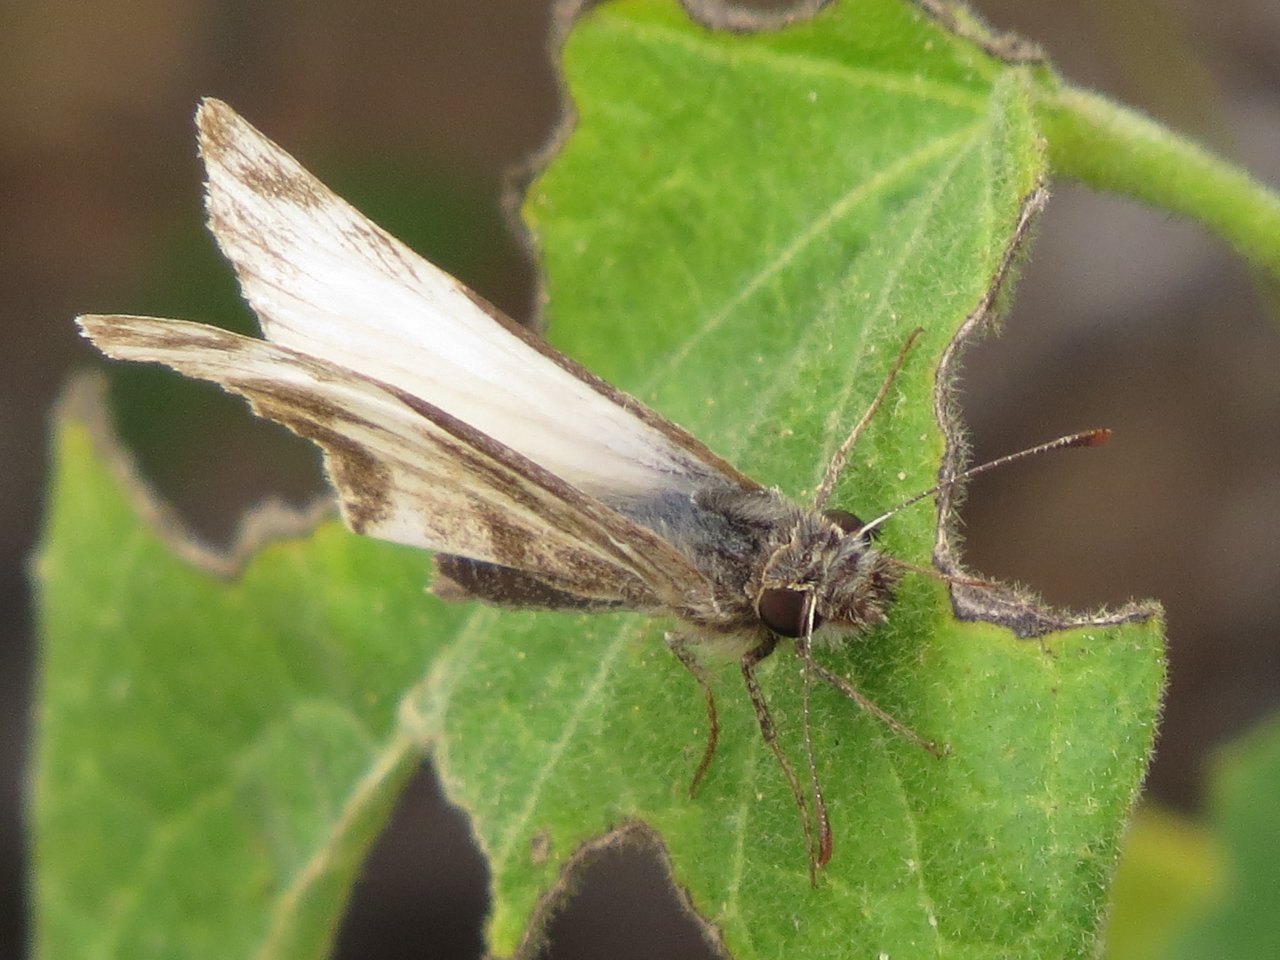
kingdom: Animalia
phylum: Arthropoda
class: Insecta
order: Lepidoptera
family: Hesperiidae
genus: Heliopetes
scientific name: Heliopetes macaira
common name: Turk's-cap White-Skipper
